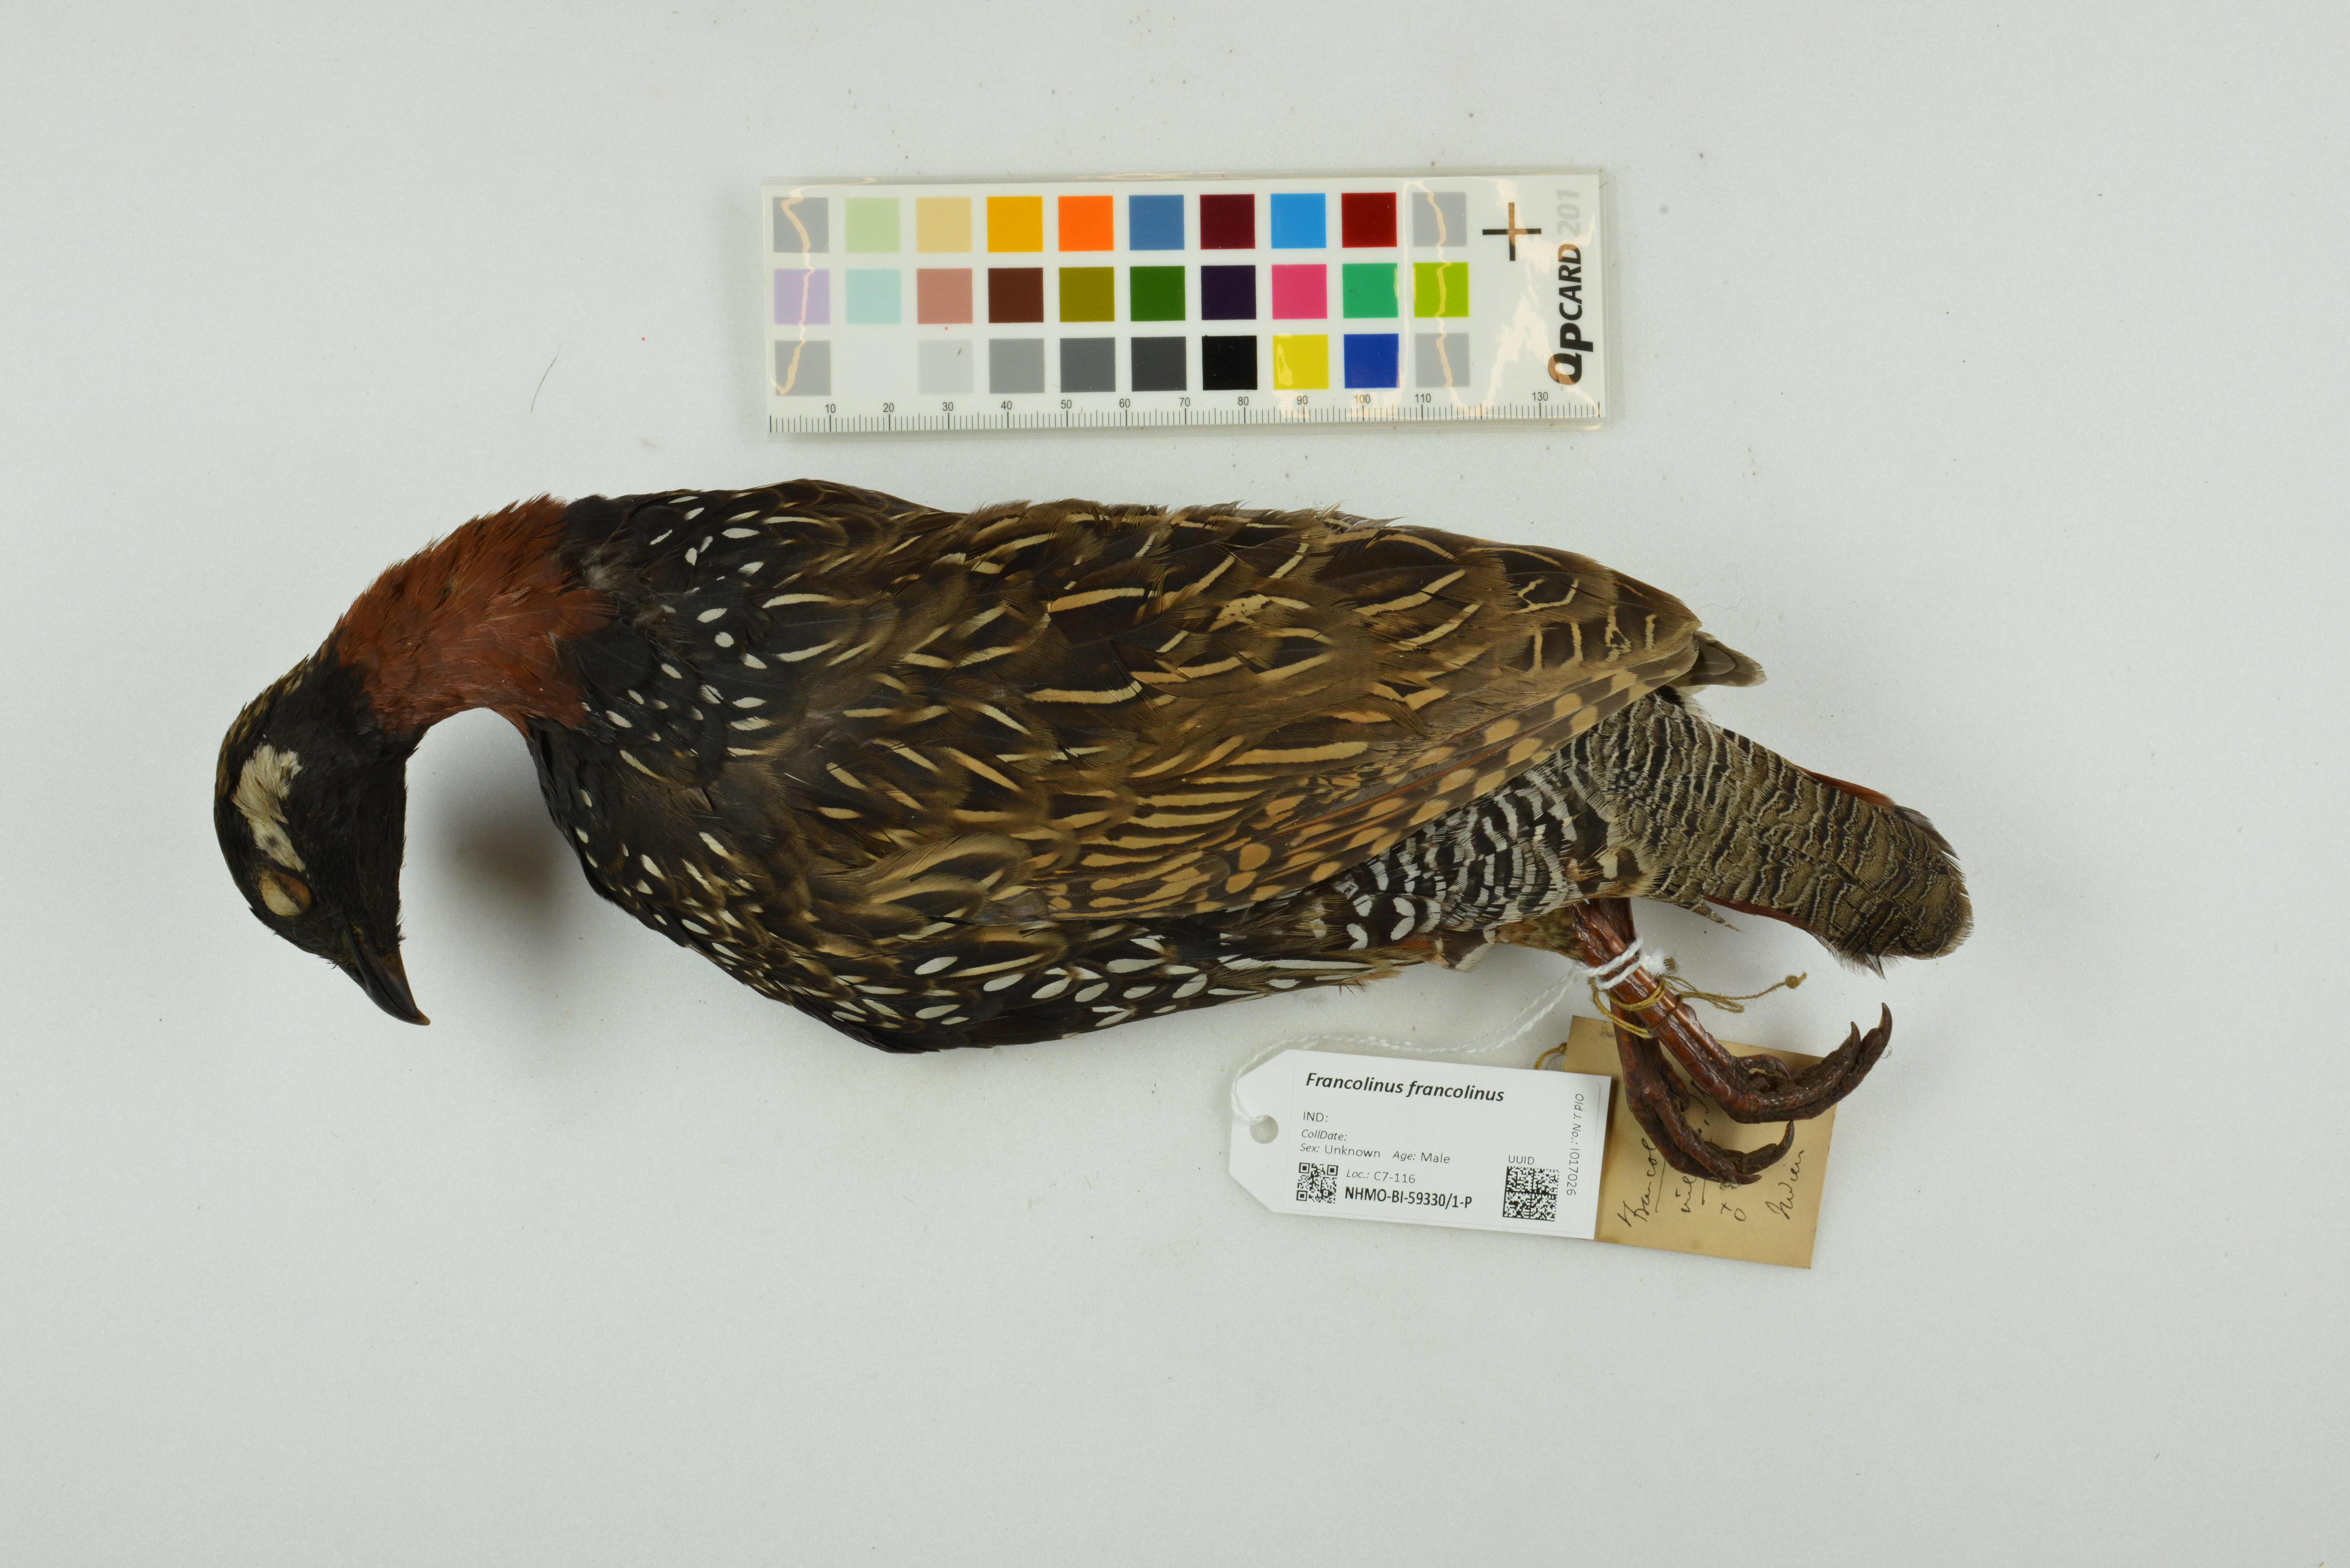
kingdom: Animalia
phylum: Chordata
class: Aves
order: Galliformes
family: Phasianidae
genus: Francolinus
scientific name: Francolinus francolinus
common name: Black francolin
